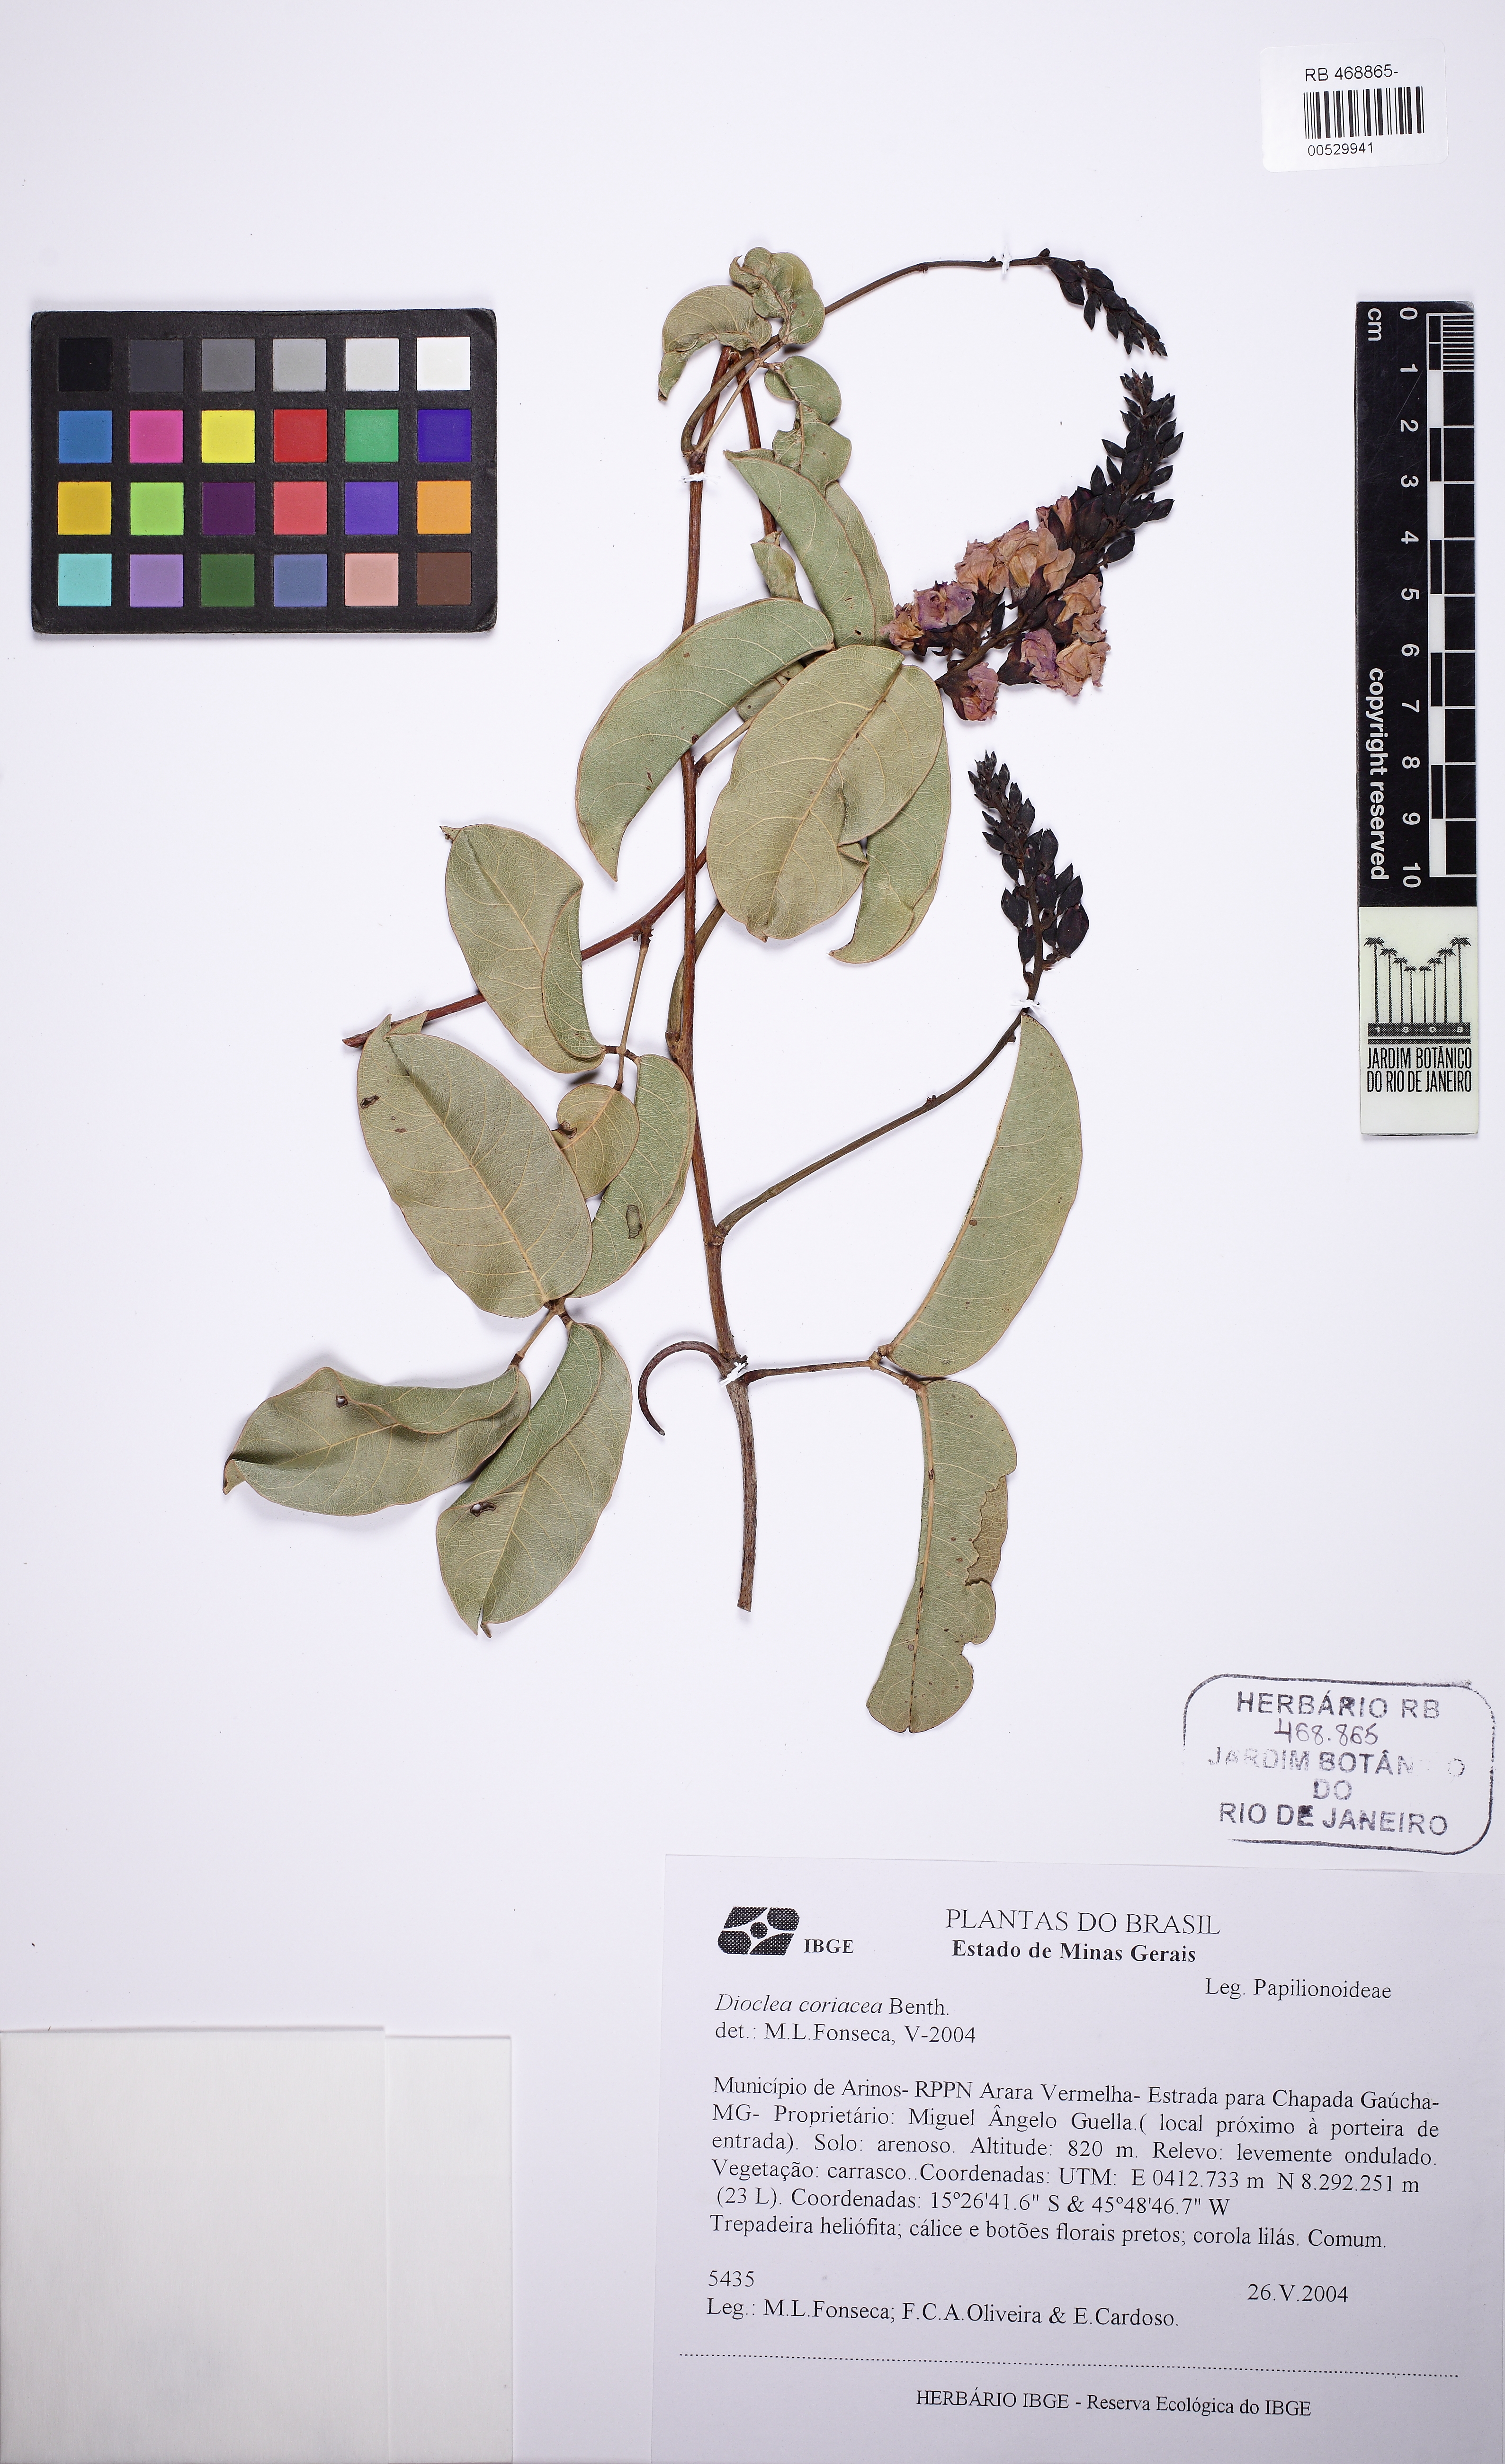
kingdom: Plantae
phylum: Tracheophyta
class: Magnoliopsida
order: Fabales
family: Fabaceae
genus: Macropsychanthus
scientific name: Macropsychanthus coriaceus
